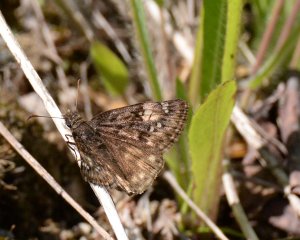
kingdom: Animalia
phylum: Arthropoda
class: Insecta
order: Lepidoptera
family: Hesperiidae
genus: Gesta
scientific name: Gesta
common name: Juvenal's Duskywing
